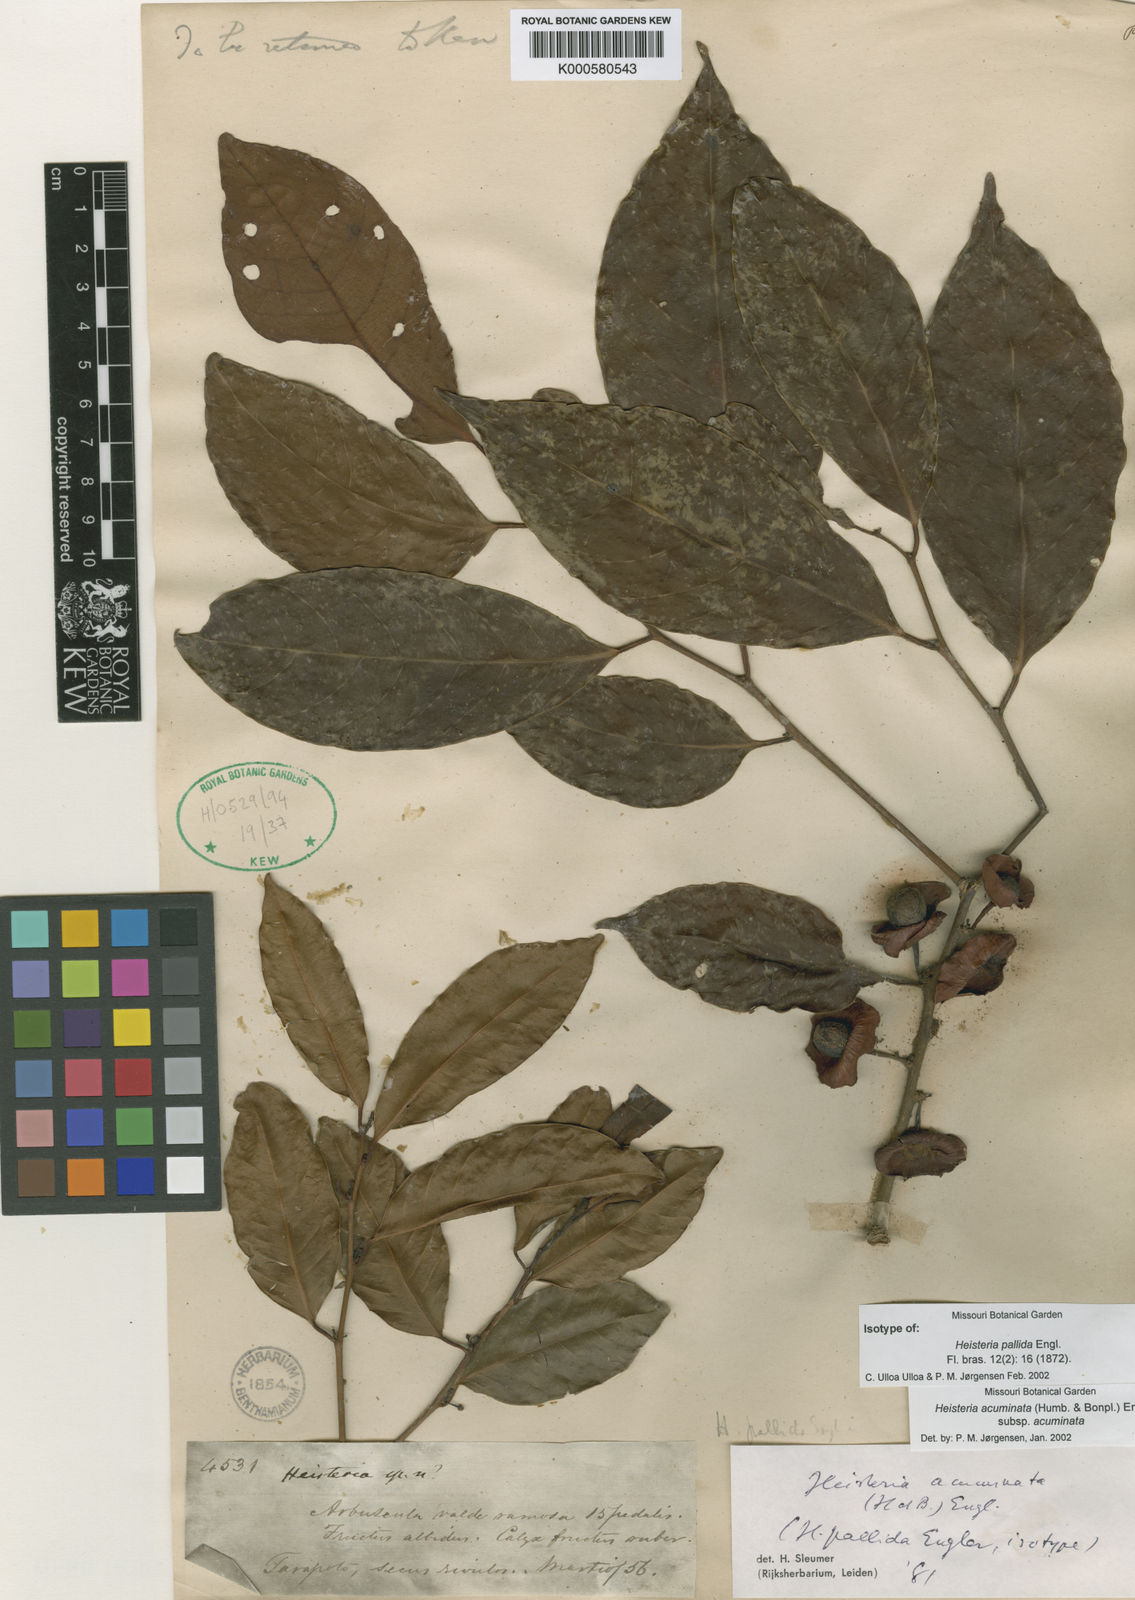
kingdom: Plantae
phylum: Tracheophyta
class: Magnoliopsida
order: Santalales
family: Erythropalaceae
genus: Heisteria
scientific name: Heisteria acuminata
